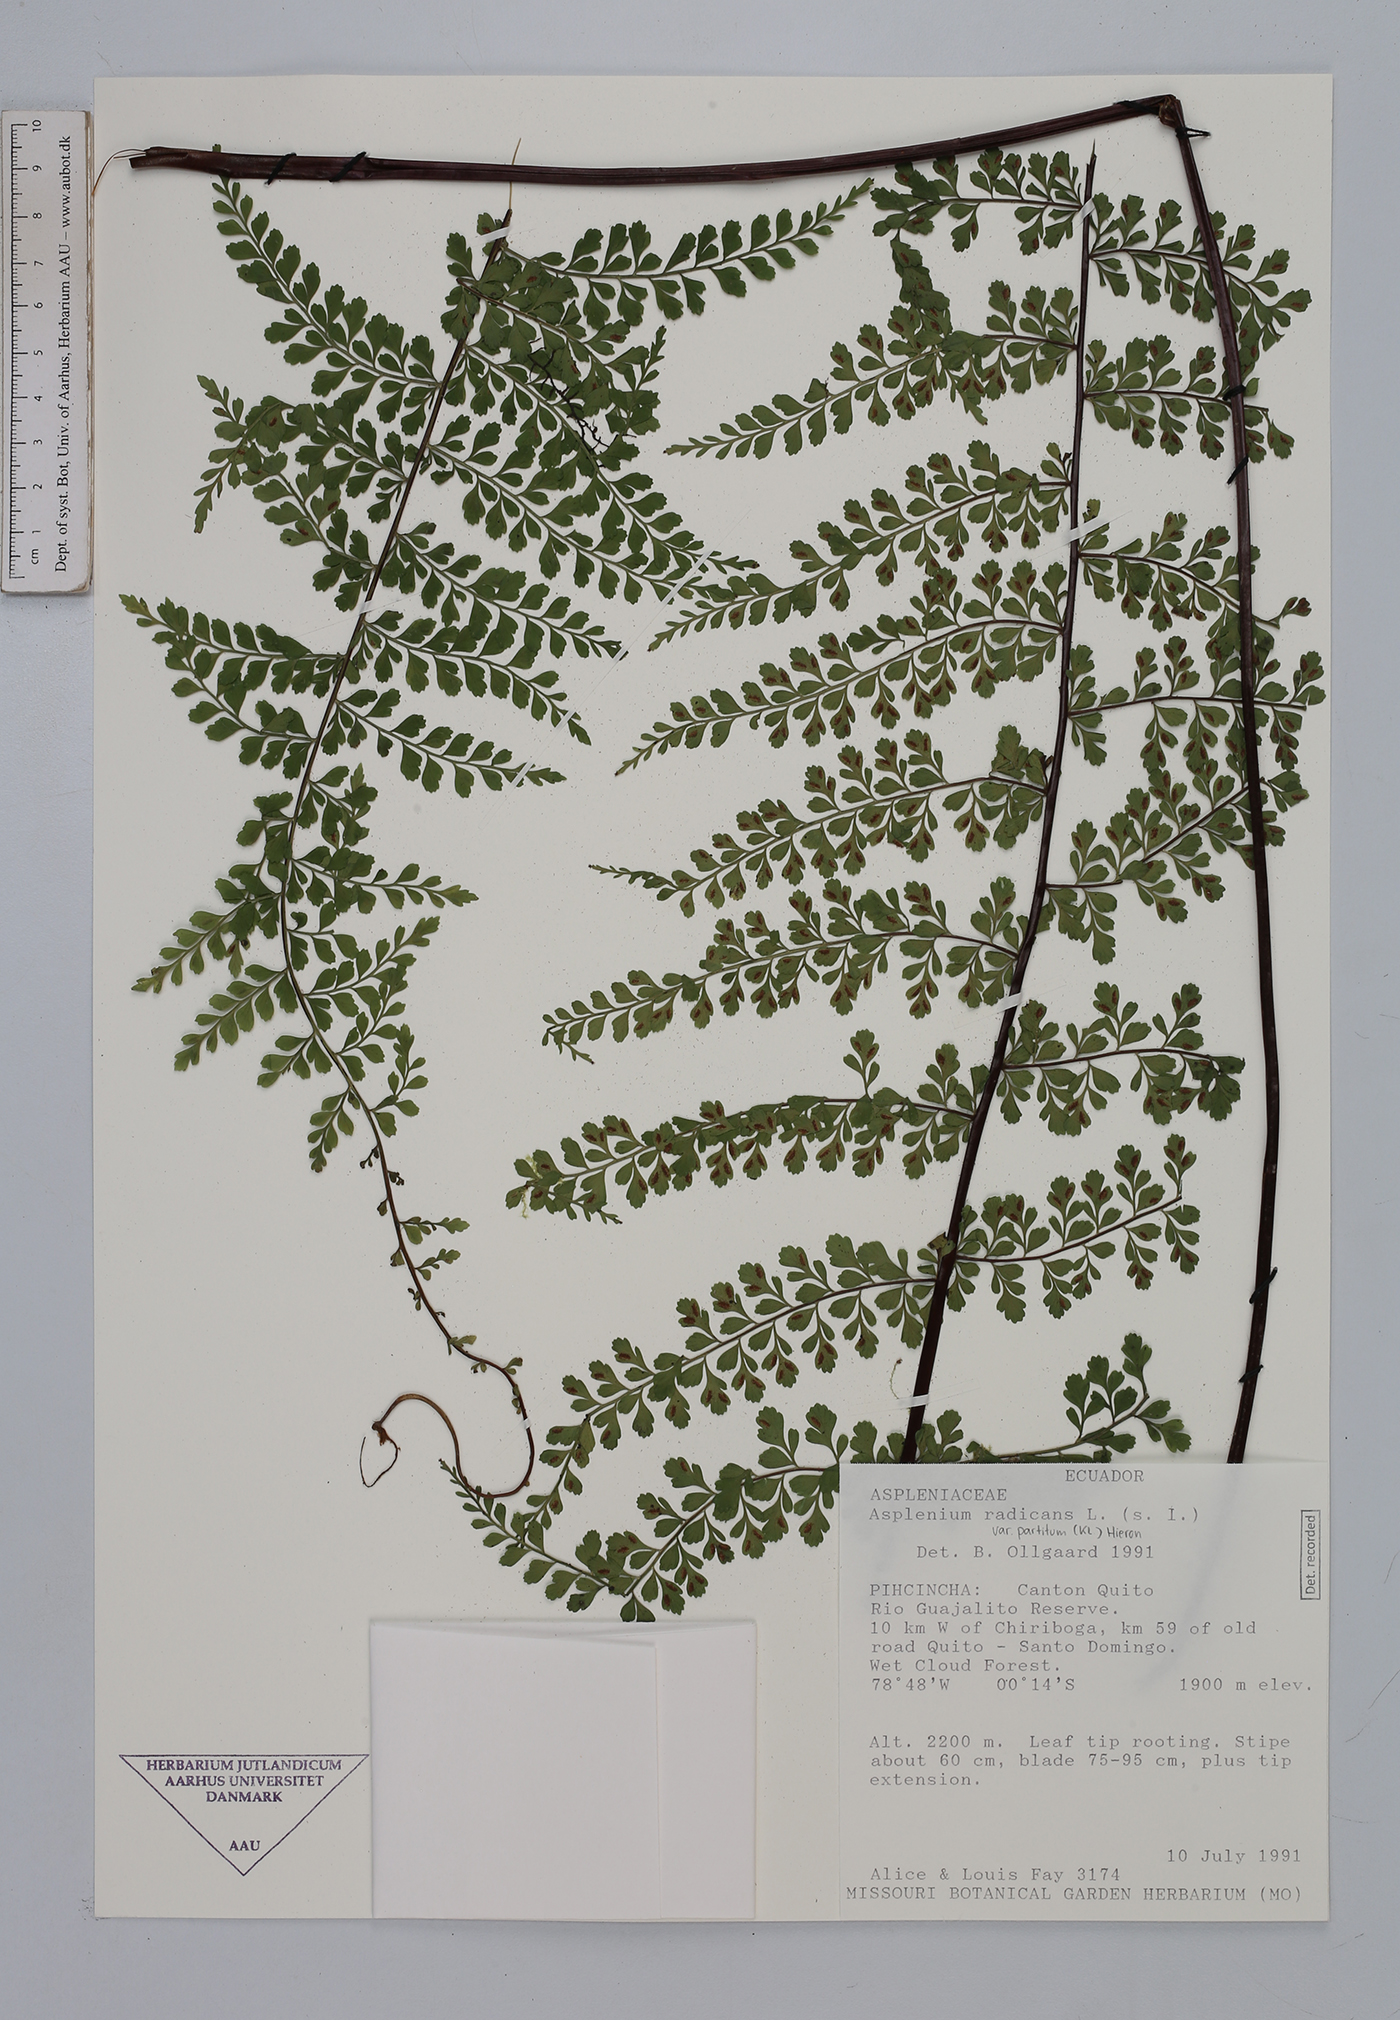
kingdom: Plantae
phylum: Tracheophyta
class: Polypodiopsida
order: Polypodiales
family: Aspleniaceae
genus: Asplenium
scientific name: Asplenium flabellulatum
